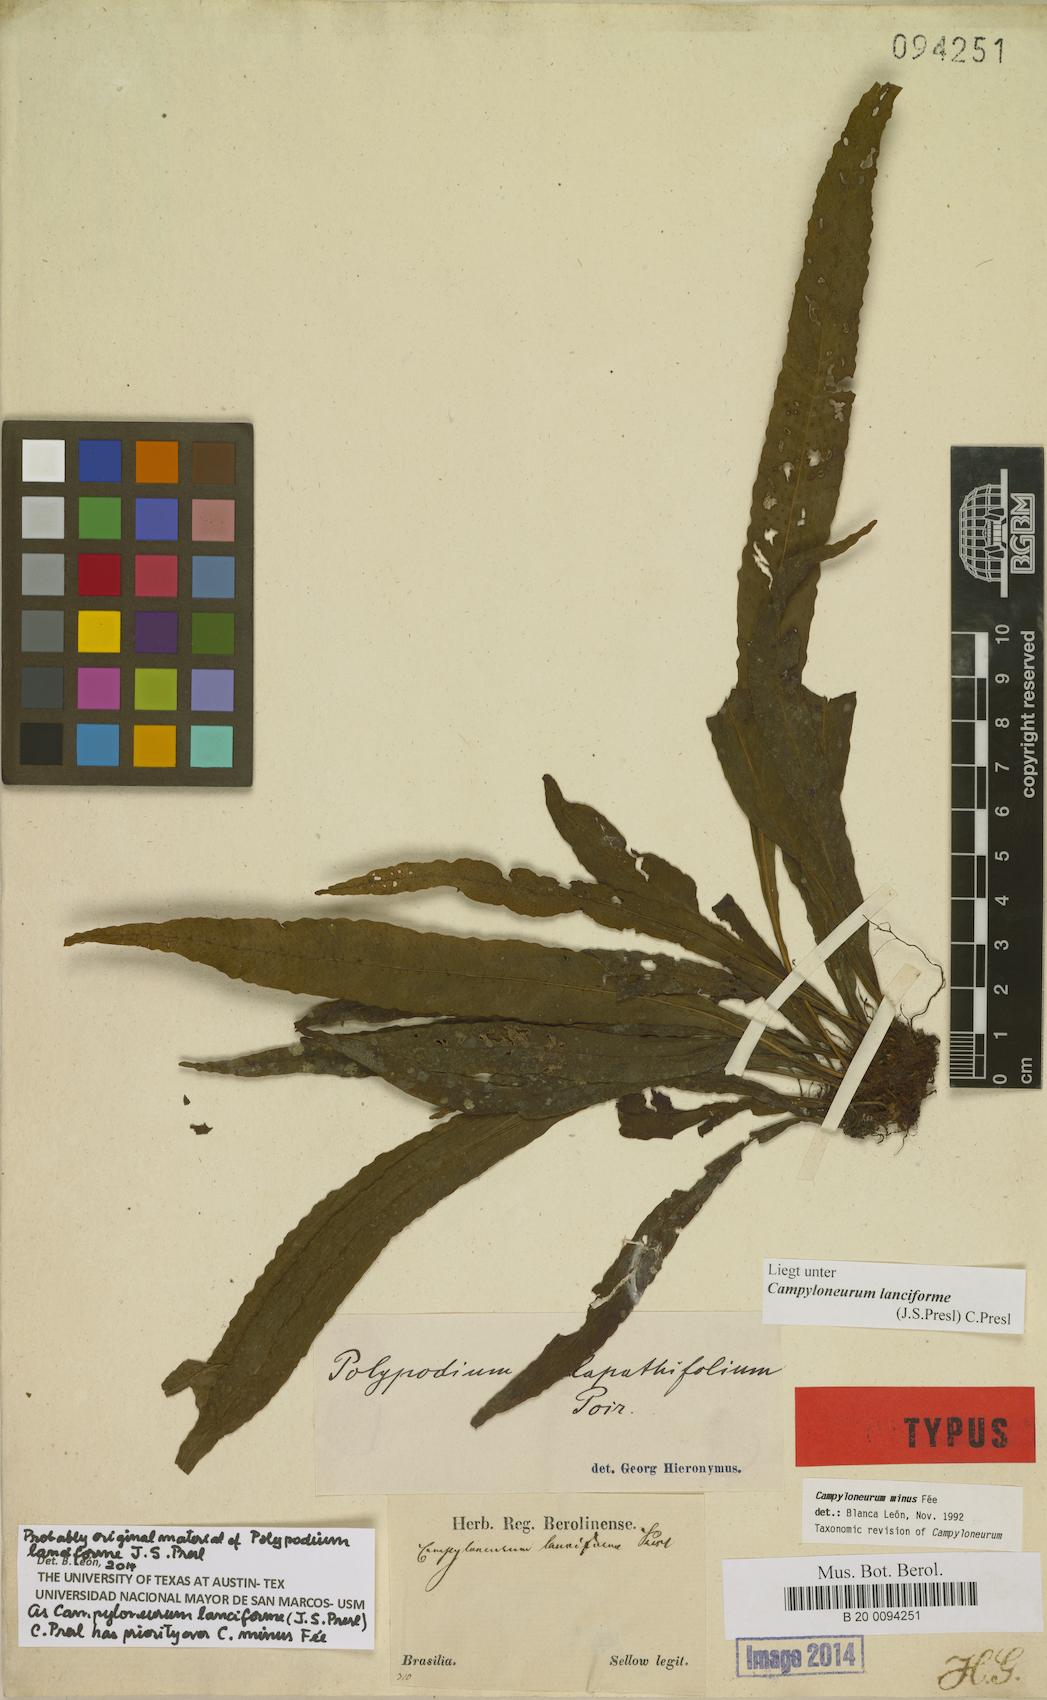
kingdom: Plantae
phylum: Tracheophyta
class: Polypodiopsida
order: Polypodiales
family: Polypodiaceae
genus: Campyloneurum
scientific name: Campyloneurum aphanophlebium
